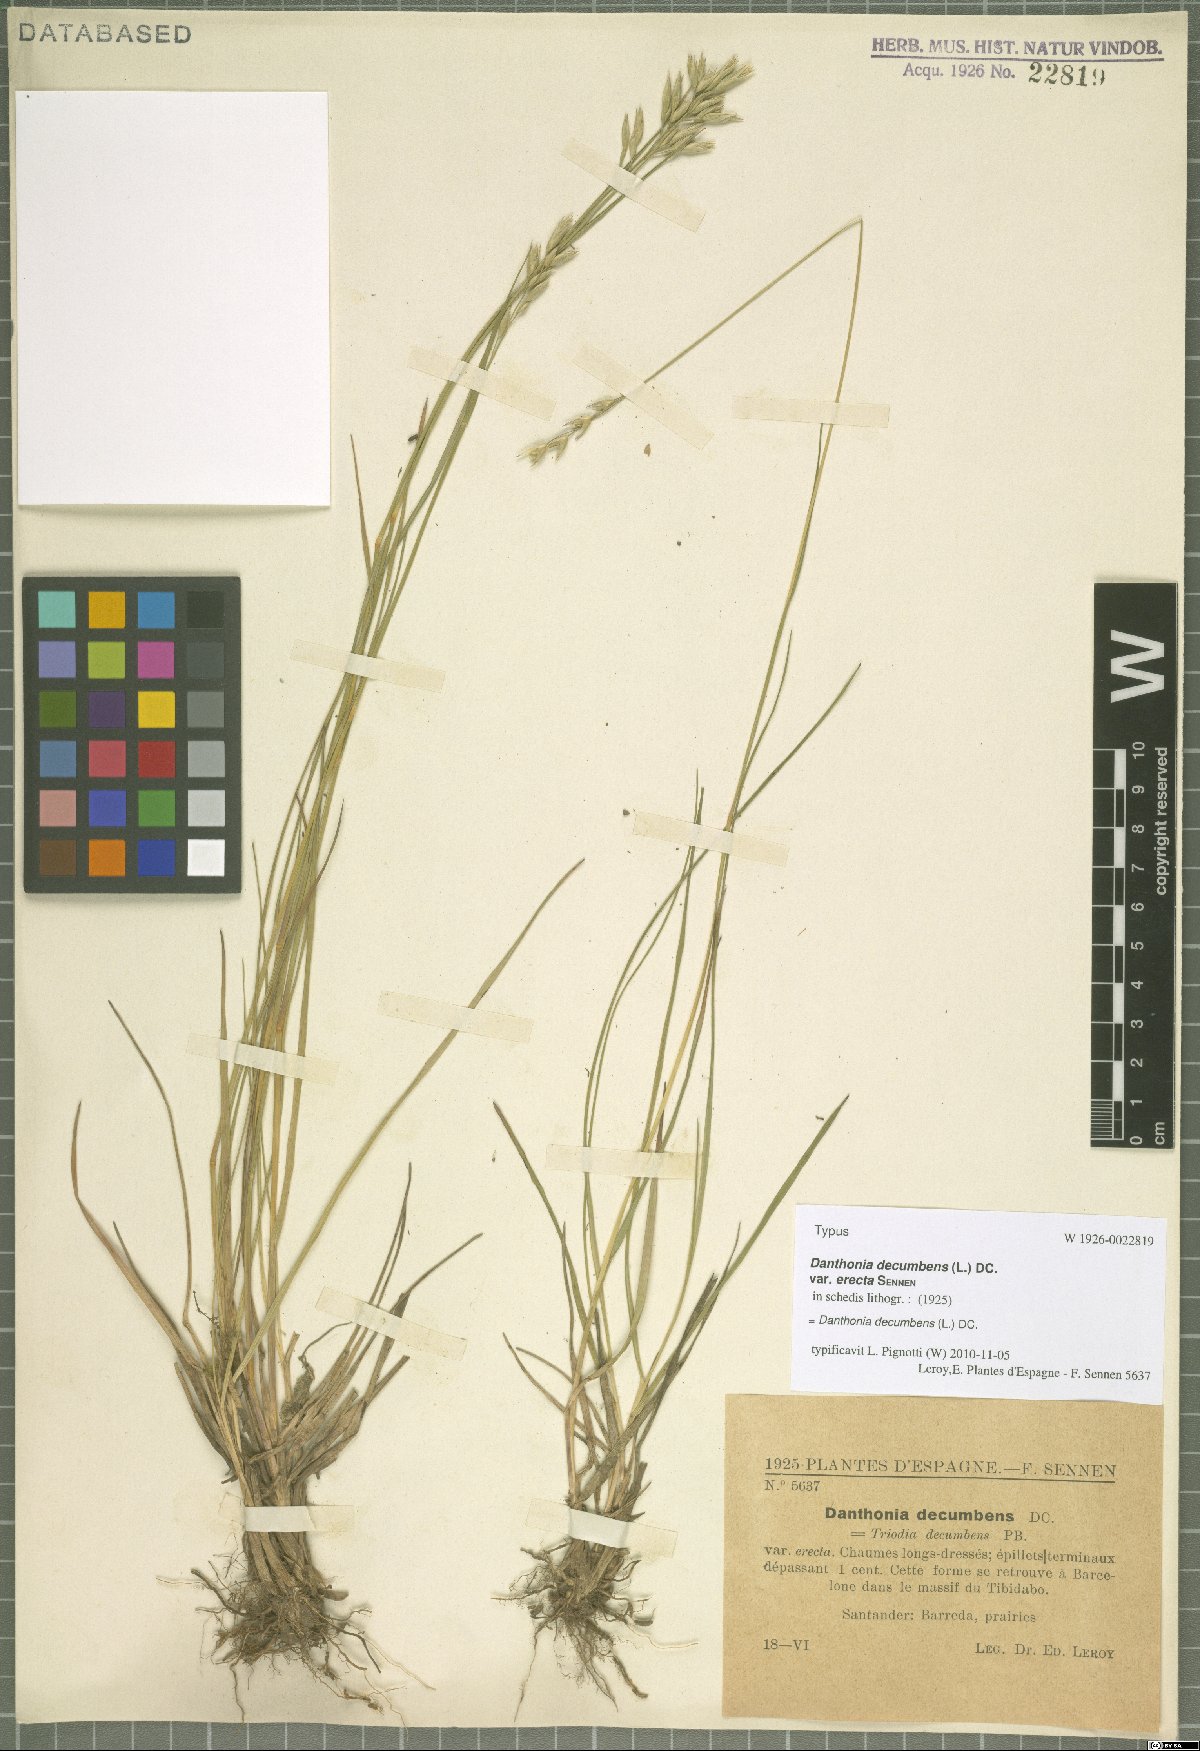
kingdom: Plantae
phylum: Tracheophyta
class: Liliopsida
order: Poales
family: Poaceae
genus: Danthonia
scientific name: Danthonia decumbens
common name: Common heathgrass
